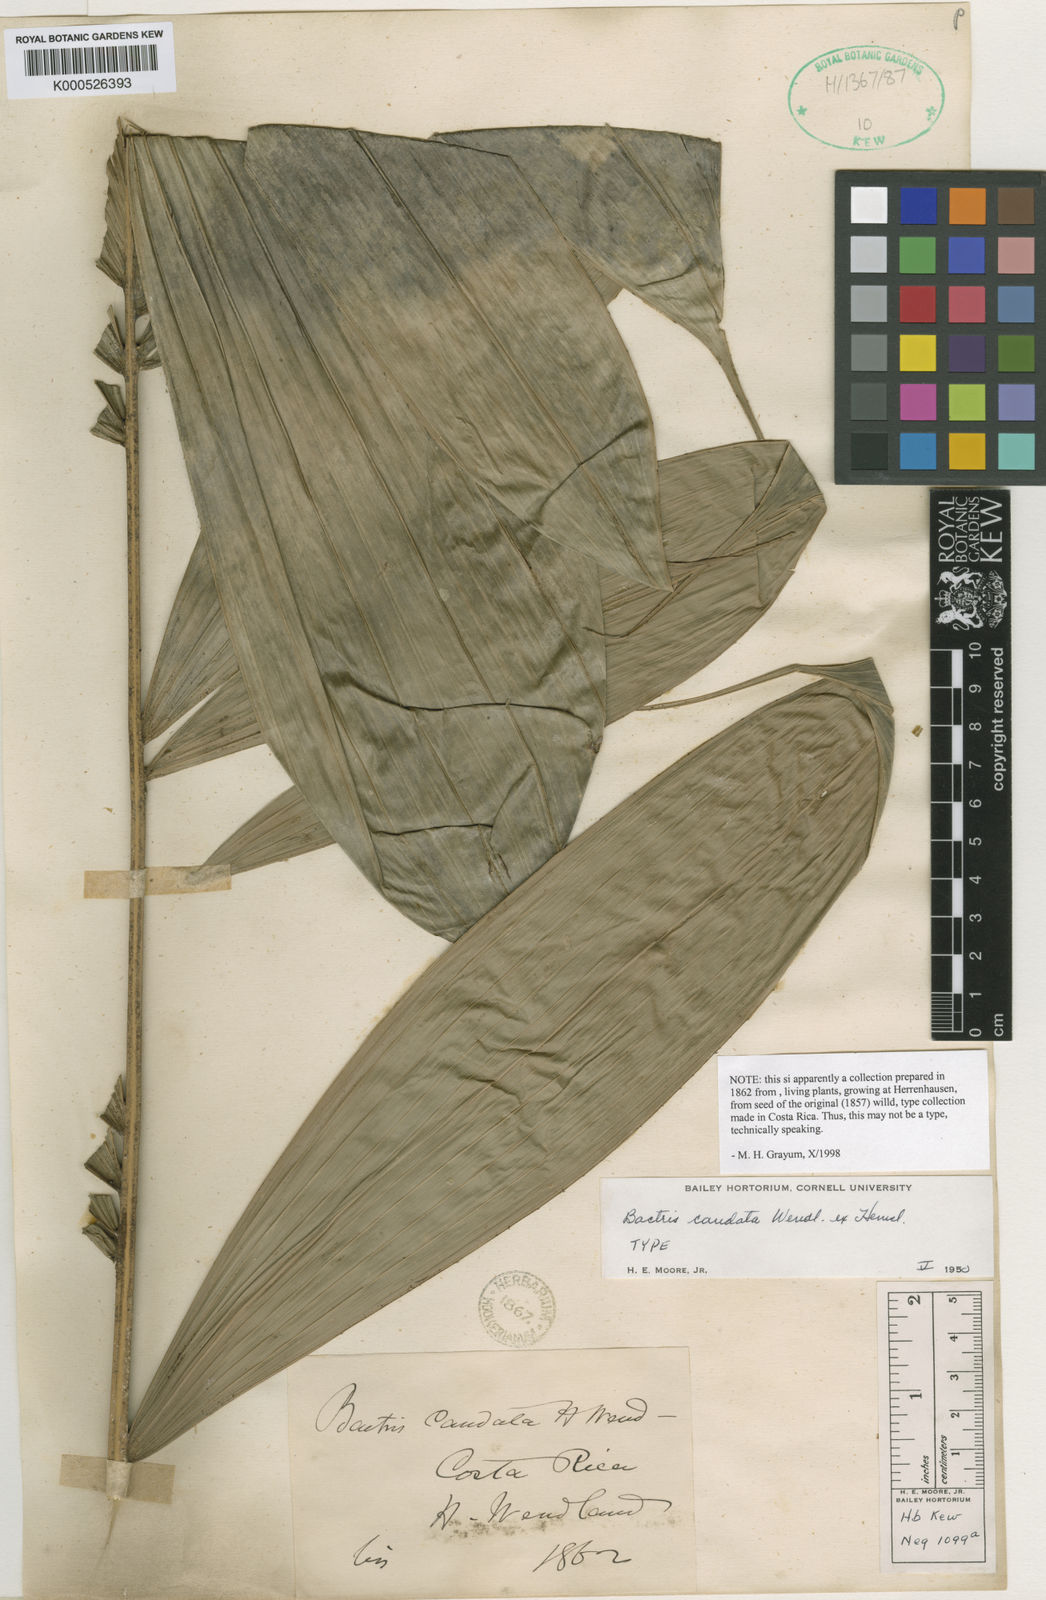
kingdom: Plantae
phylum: Tracheophyta
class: Liliopsida
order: Arecales
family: Arecaceae
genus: Bactris
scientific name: Bactris caudata
